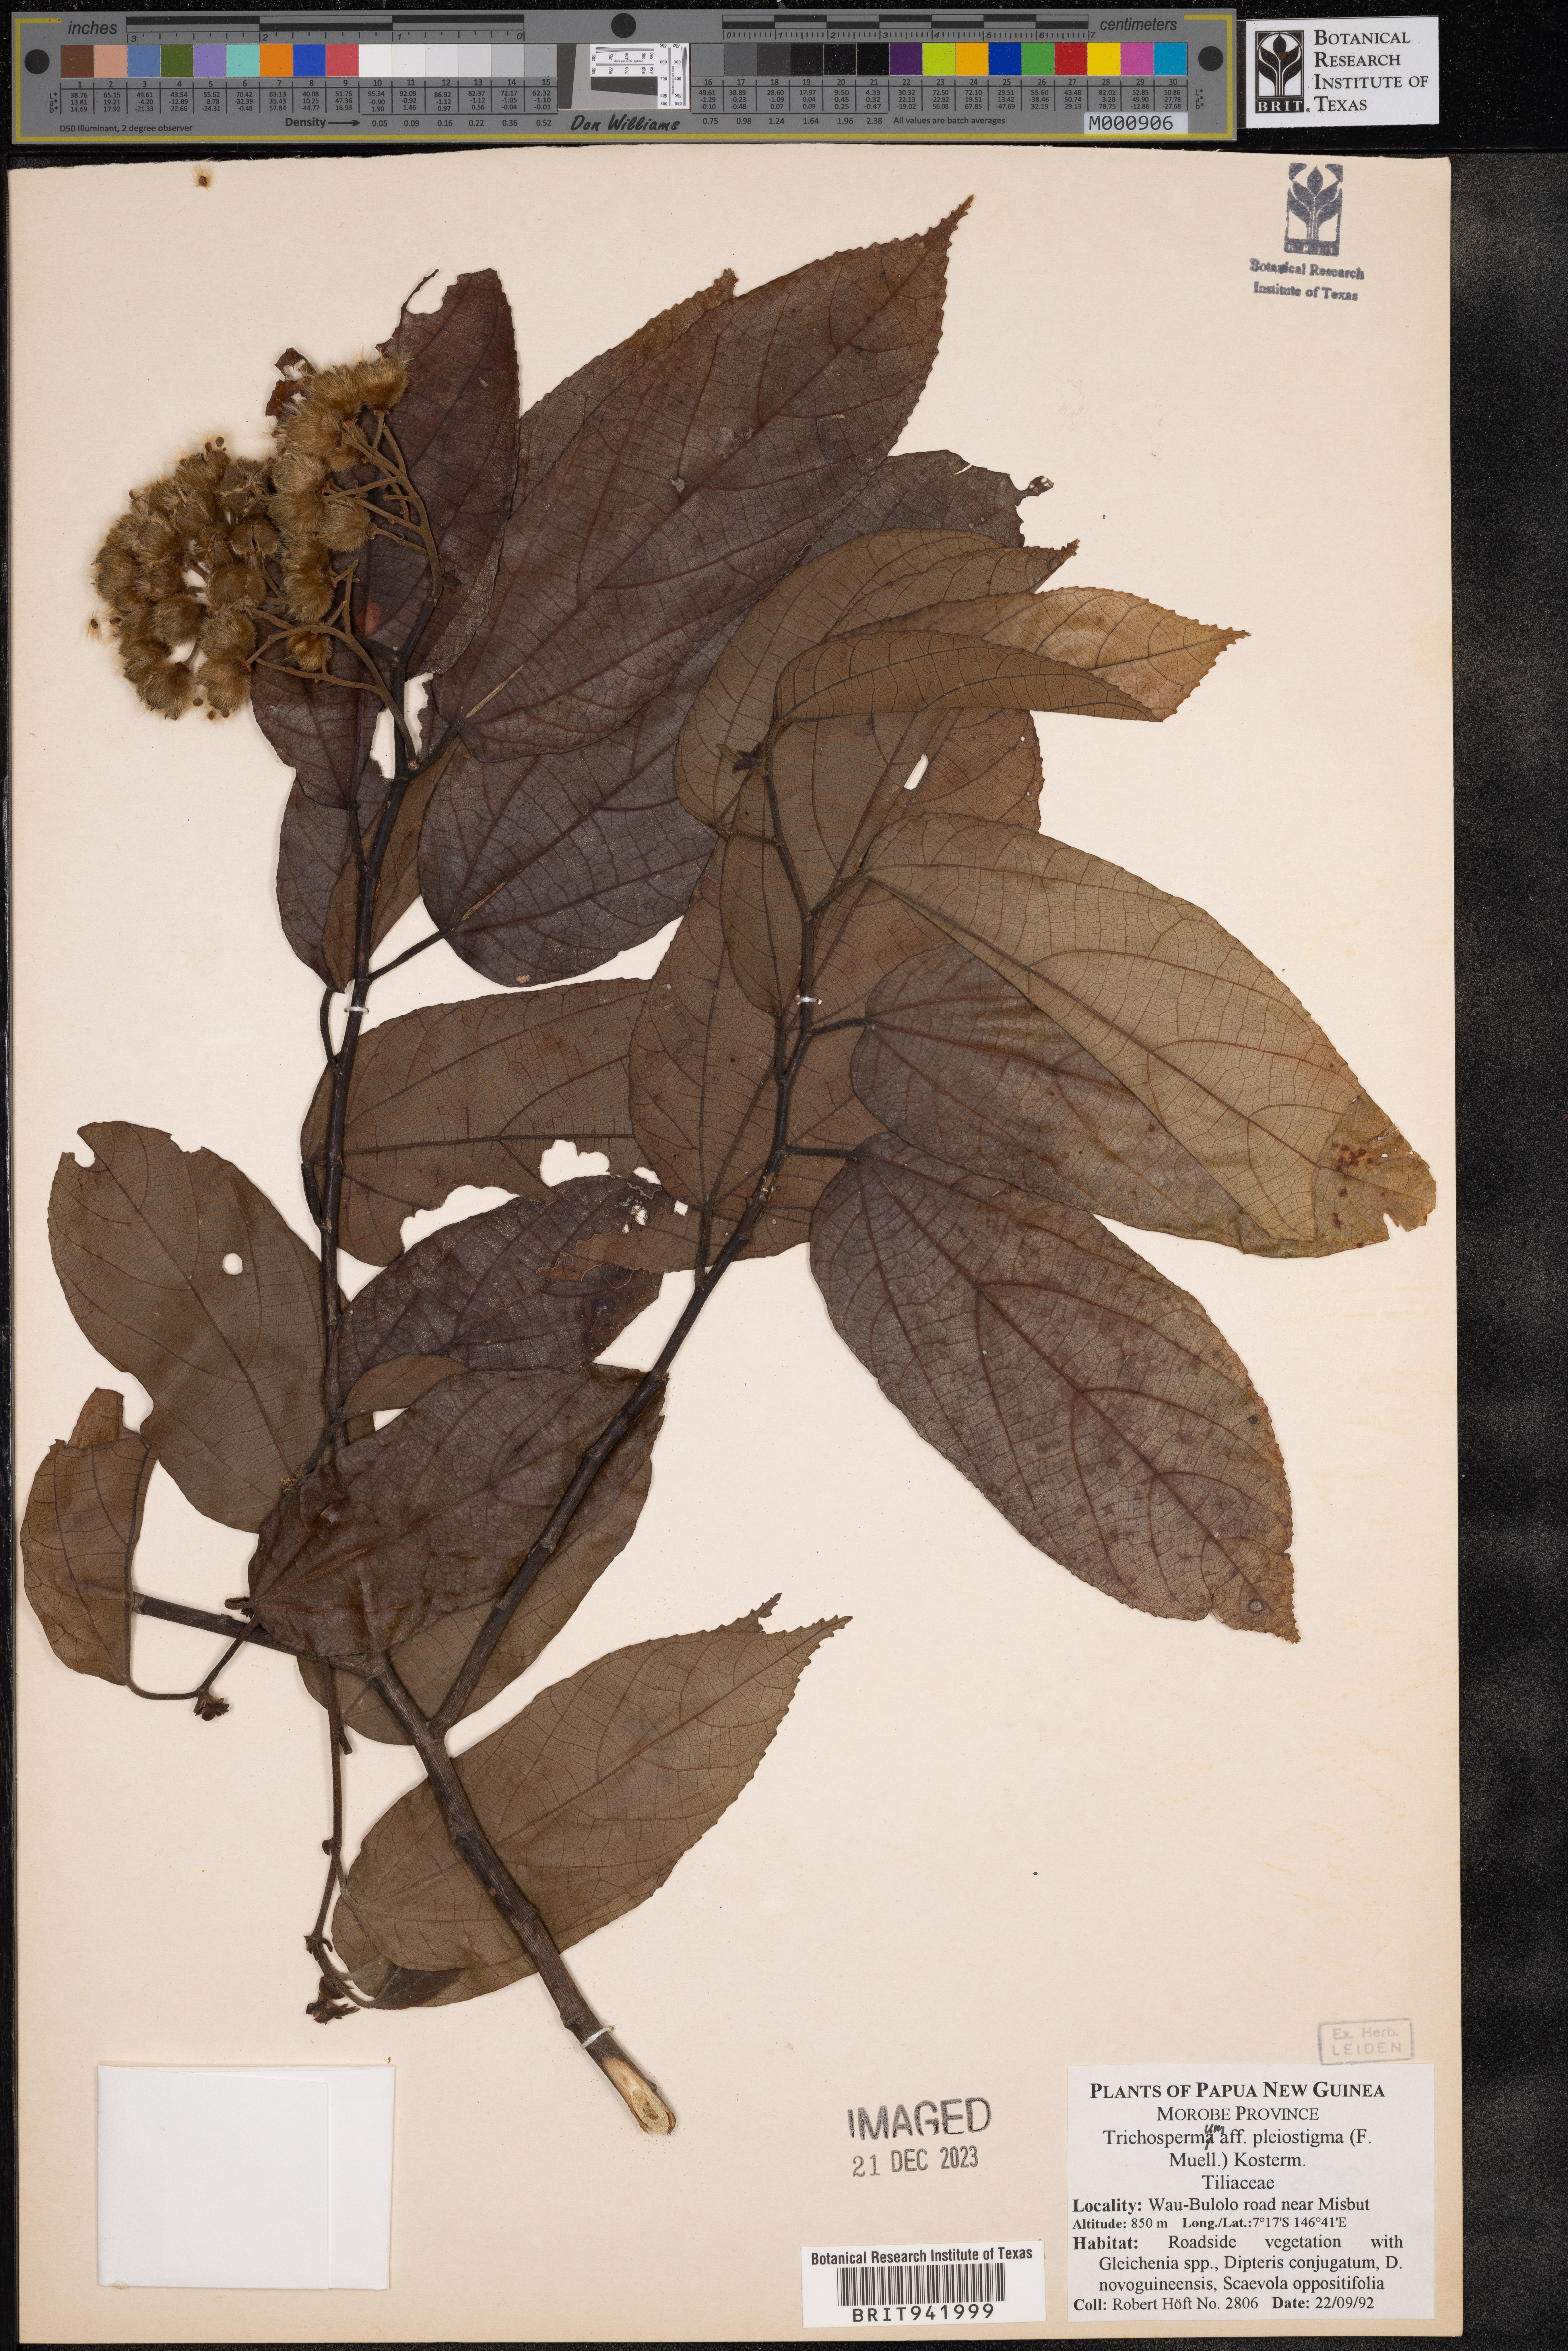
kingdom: Plantae
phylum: Tracheophyta
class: Magnoliopsida
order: Malvales
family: Malvaceae
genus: Trichospermum
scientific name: Trichospermum
